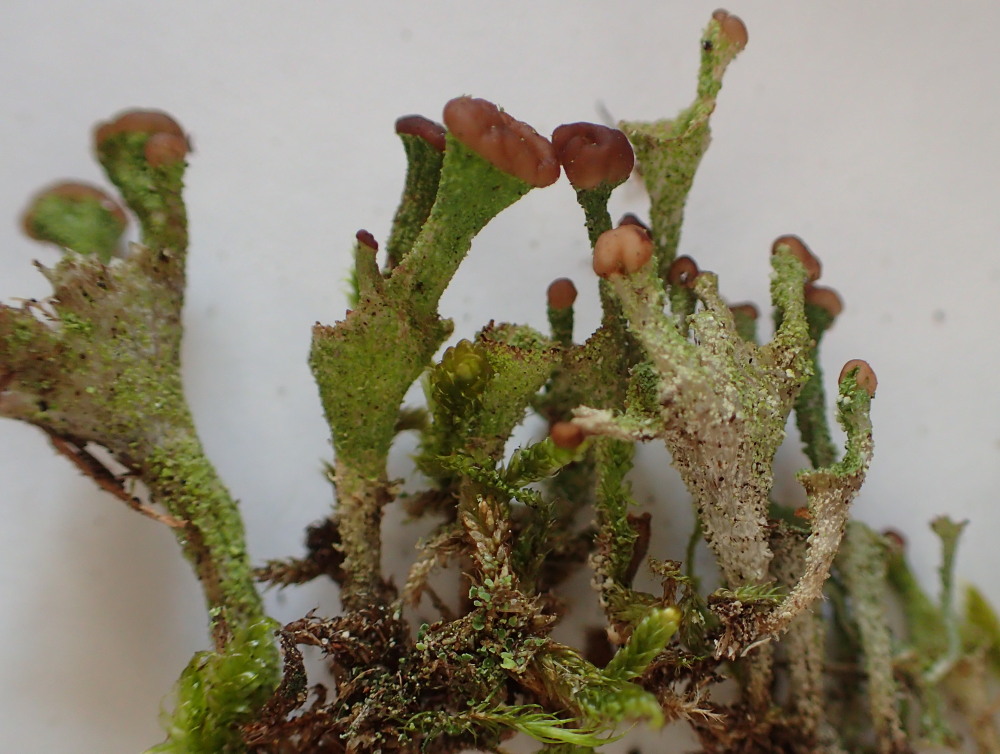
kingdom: Fungi
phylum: Ascomycota
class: Lecanoromycetes
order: Lecanorales
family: Cladoniaceae
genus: Cladonia
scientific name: Cladonia
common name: brungrøn bægerlav
